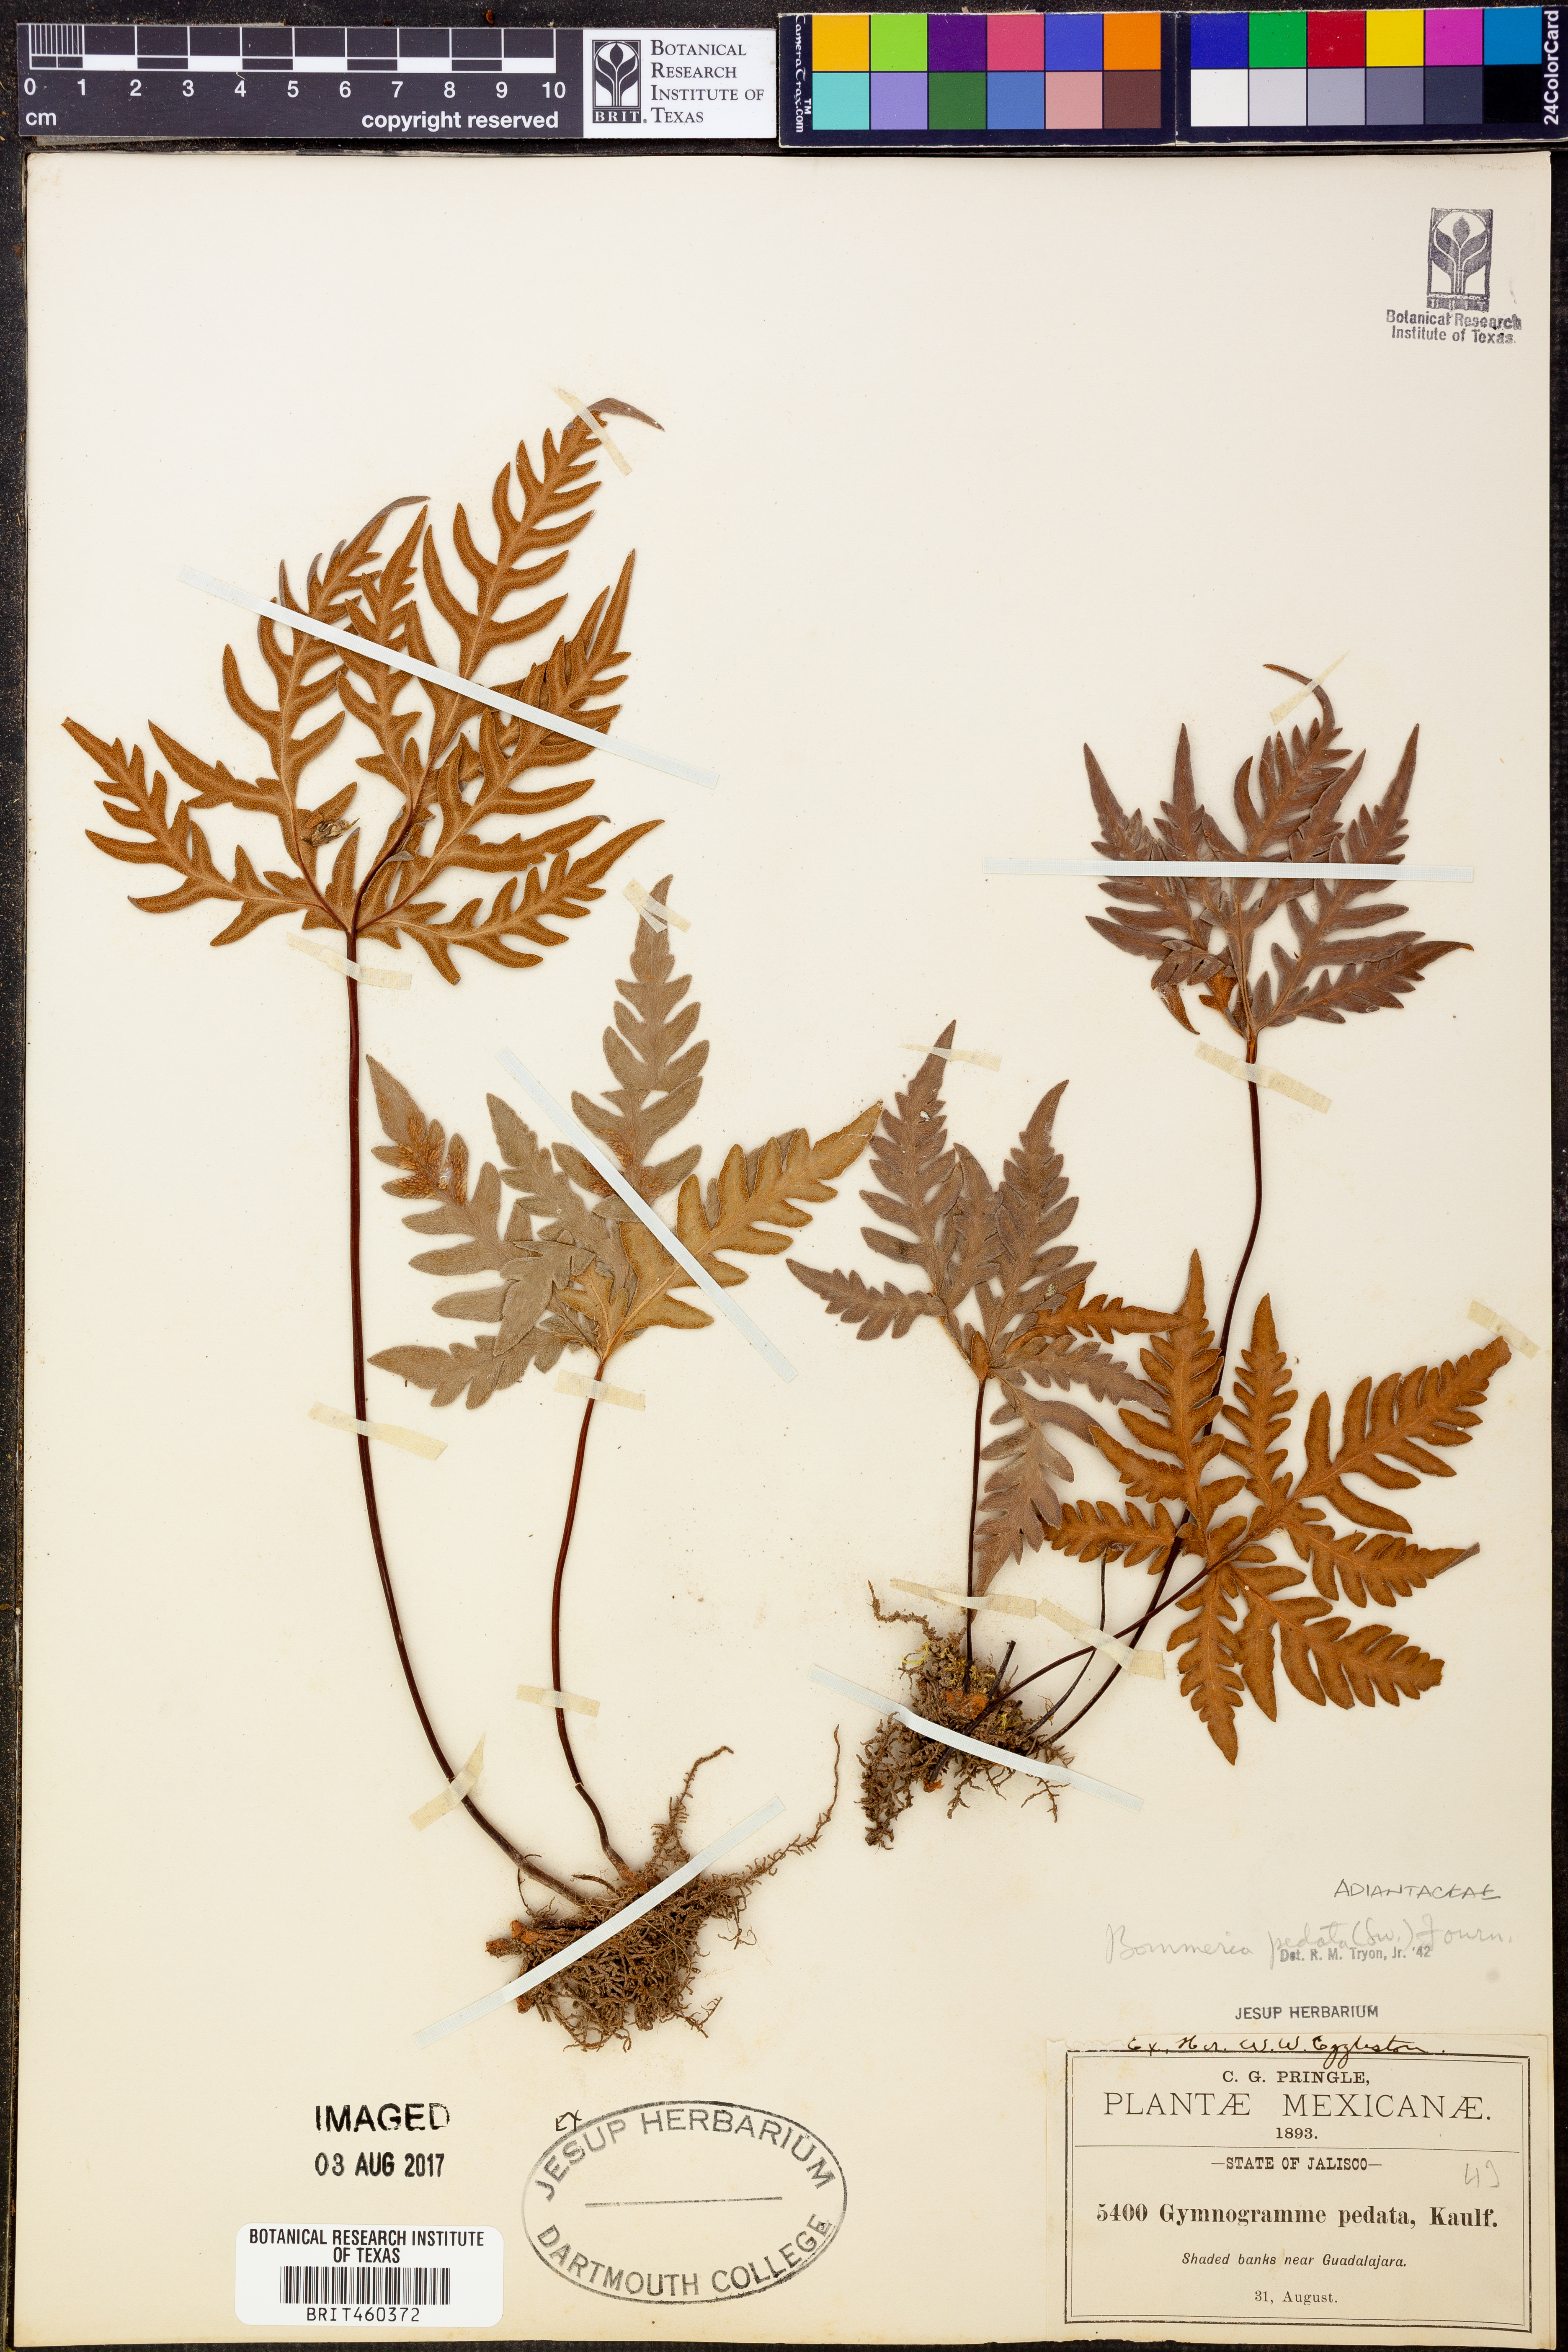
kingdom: Plantae
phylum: Tracheophyta
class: Polypodiopsida
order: Polypodiales
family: Pteridaceae
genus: Bommeria
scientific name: Bommeria pedata
